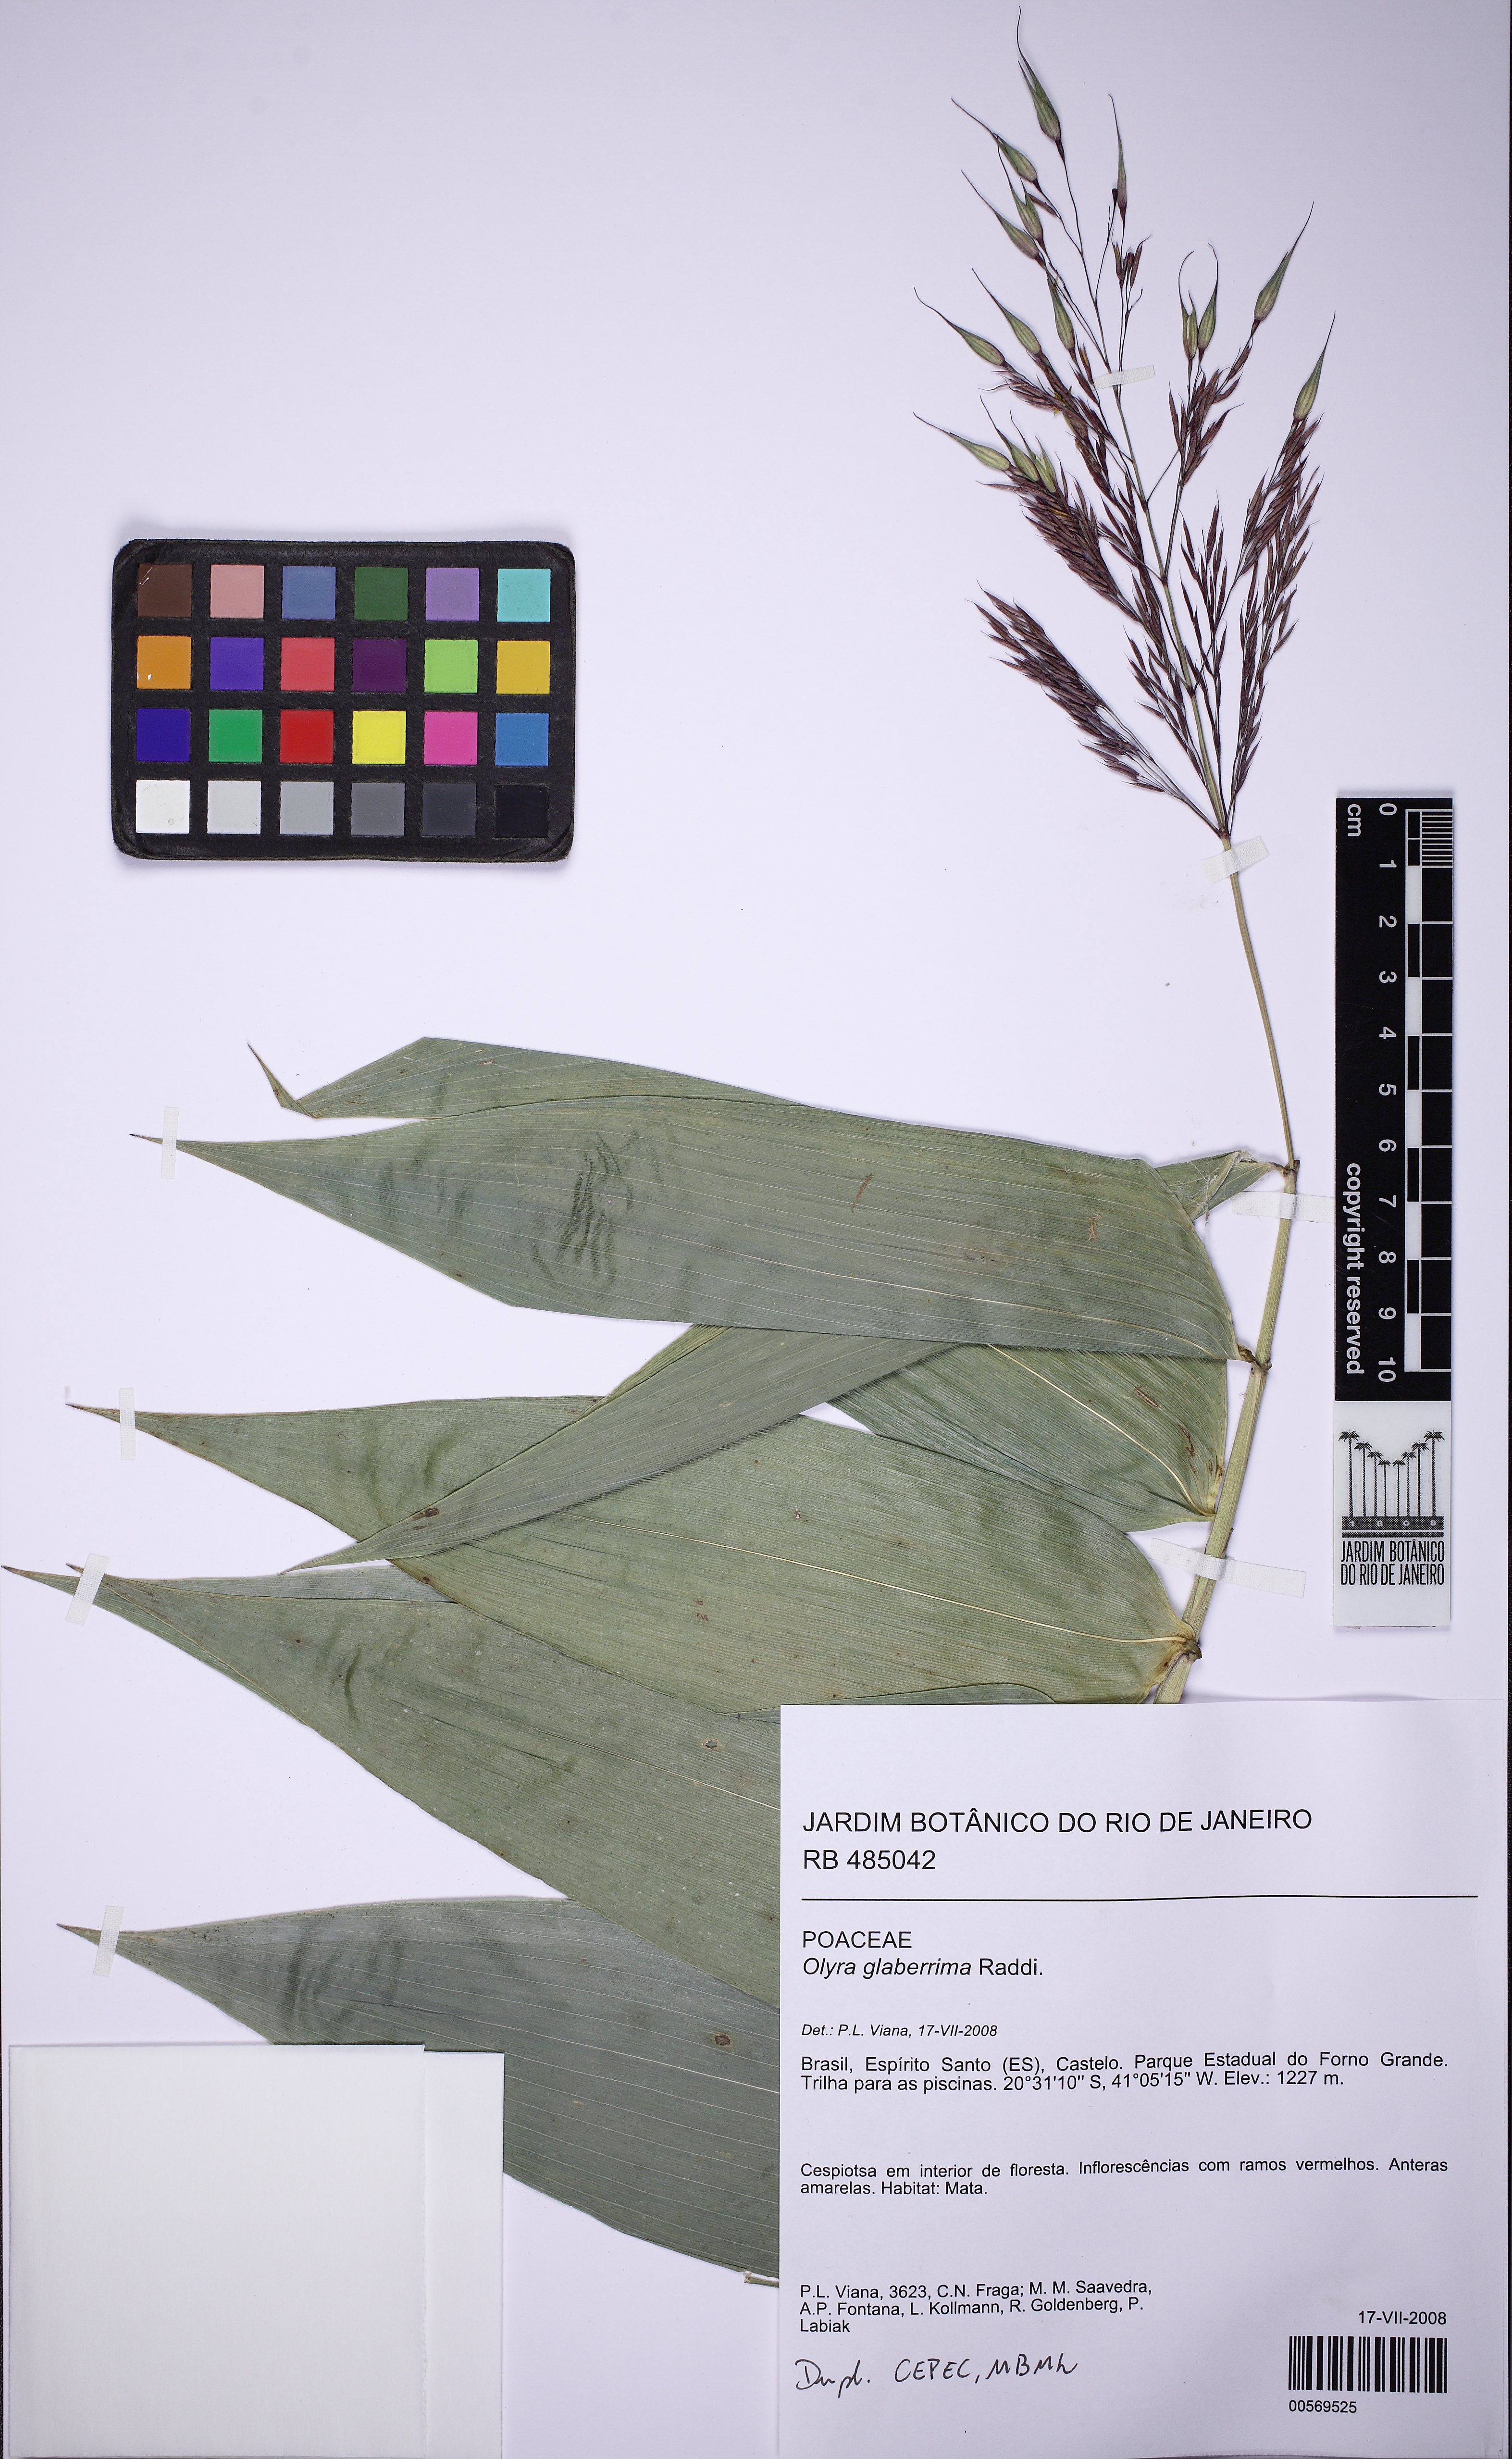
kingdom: Plantae
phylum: Tracheophyta
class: Liliopsida
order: Poales
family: Poaceae
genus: Olyra
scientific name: Olyra glaberrima
